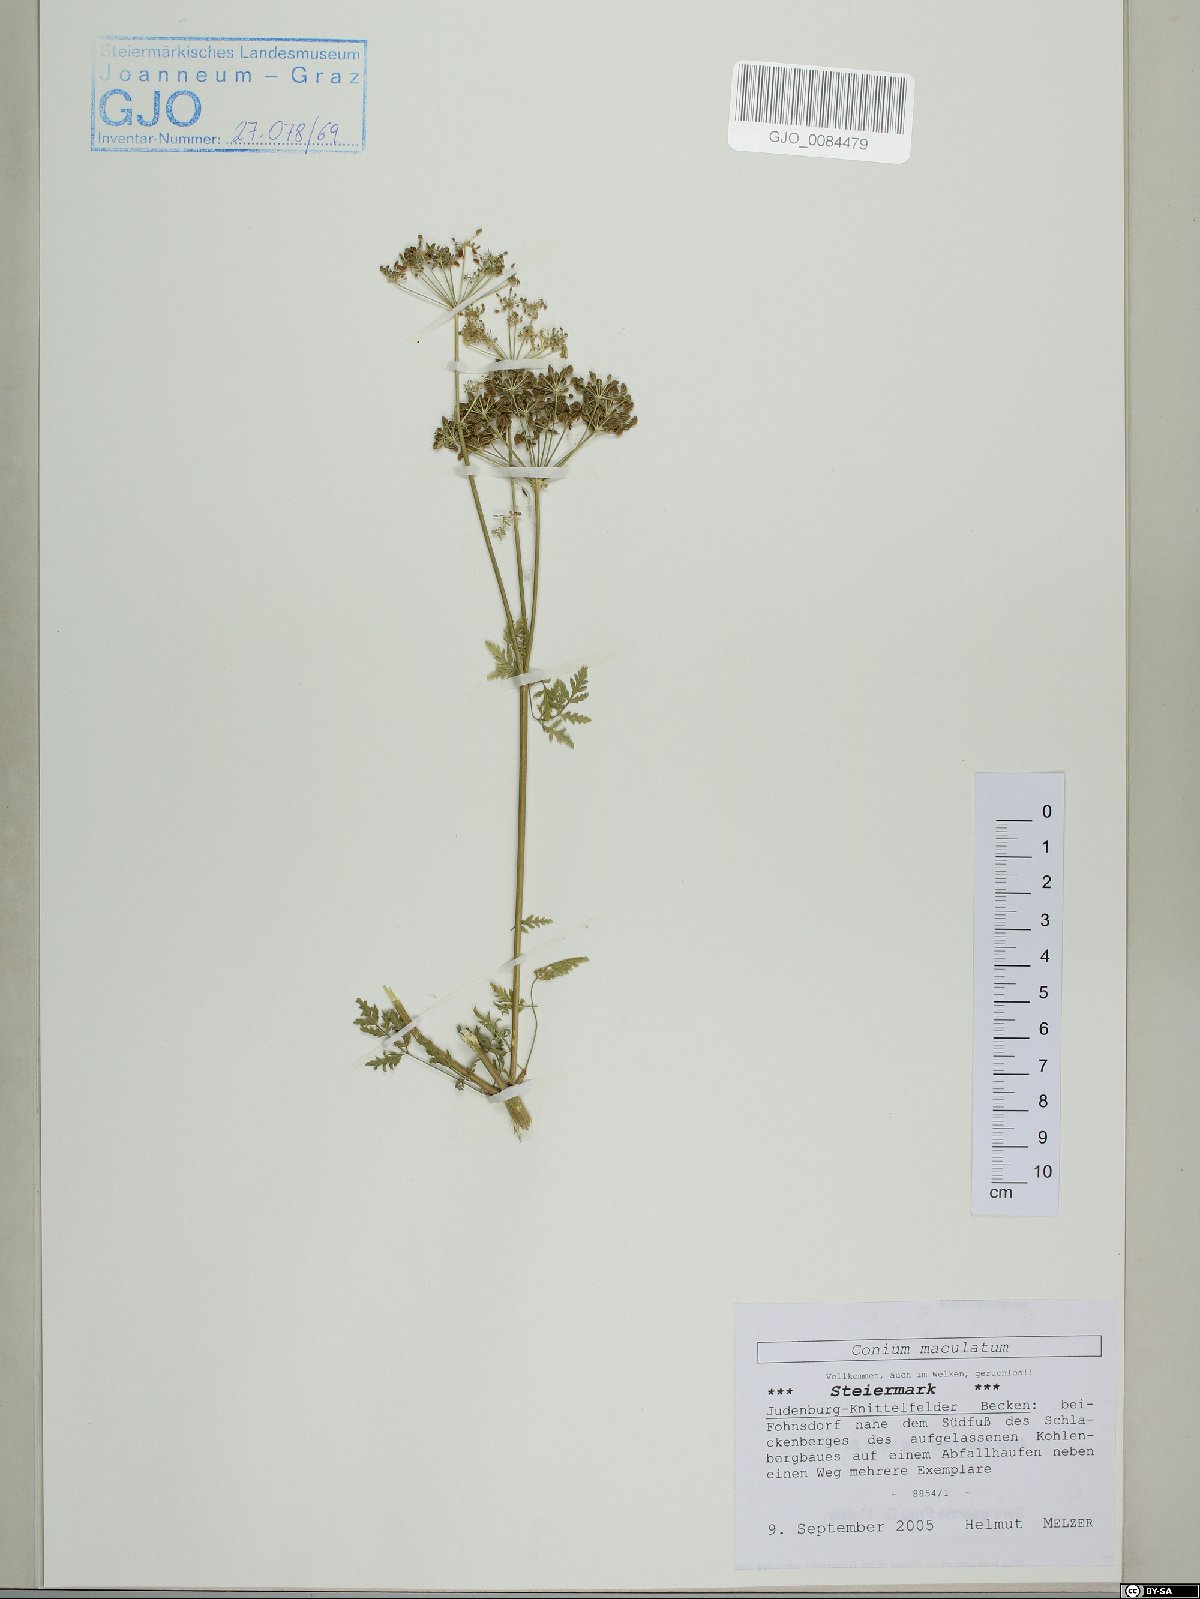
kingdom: Plantae
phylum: Tracheophyta
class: Magnoliopsida
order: Apiales
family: Apiaceae
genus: Conium
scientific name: Conium maculatum
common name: Hemlock
